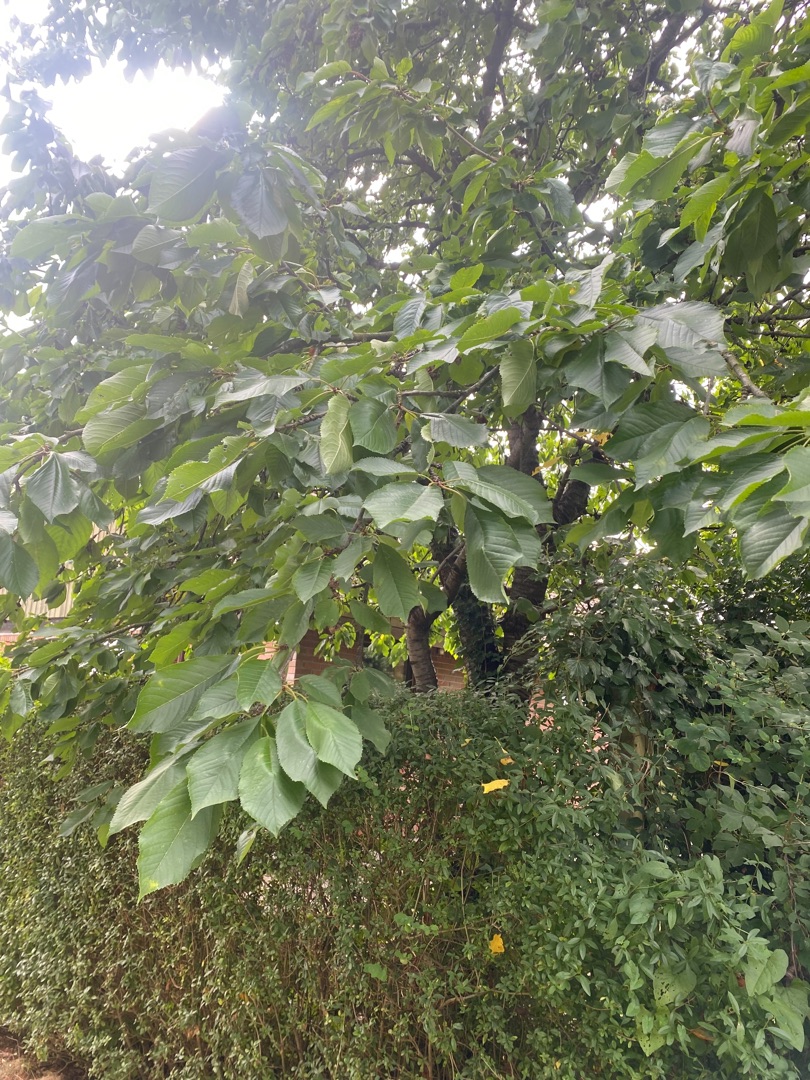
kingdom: Plantae
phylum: Tracheophyta
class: Magnoliopsida
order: Rosales
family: Rosaceae
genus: Prunus
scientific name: Prunus avium
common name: Fugle-kirsebær
